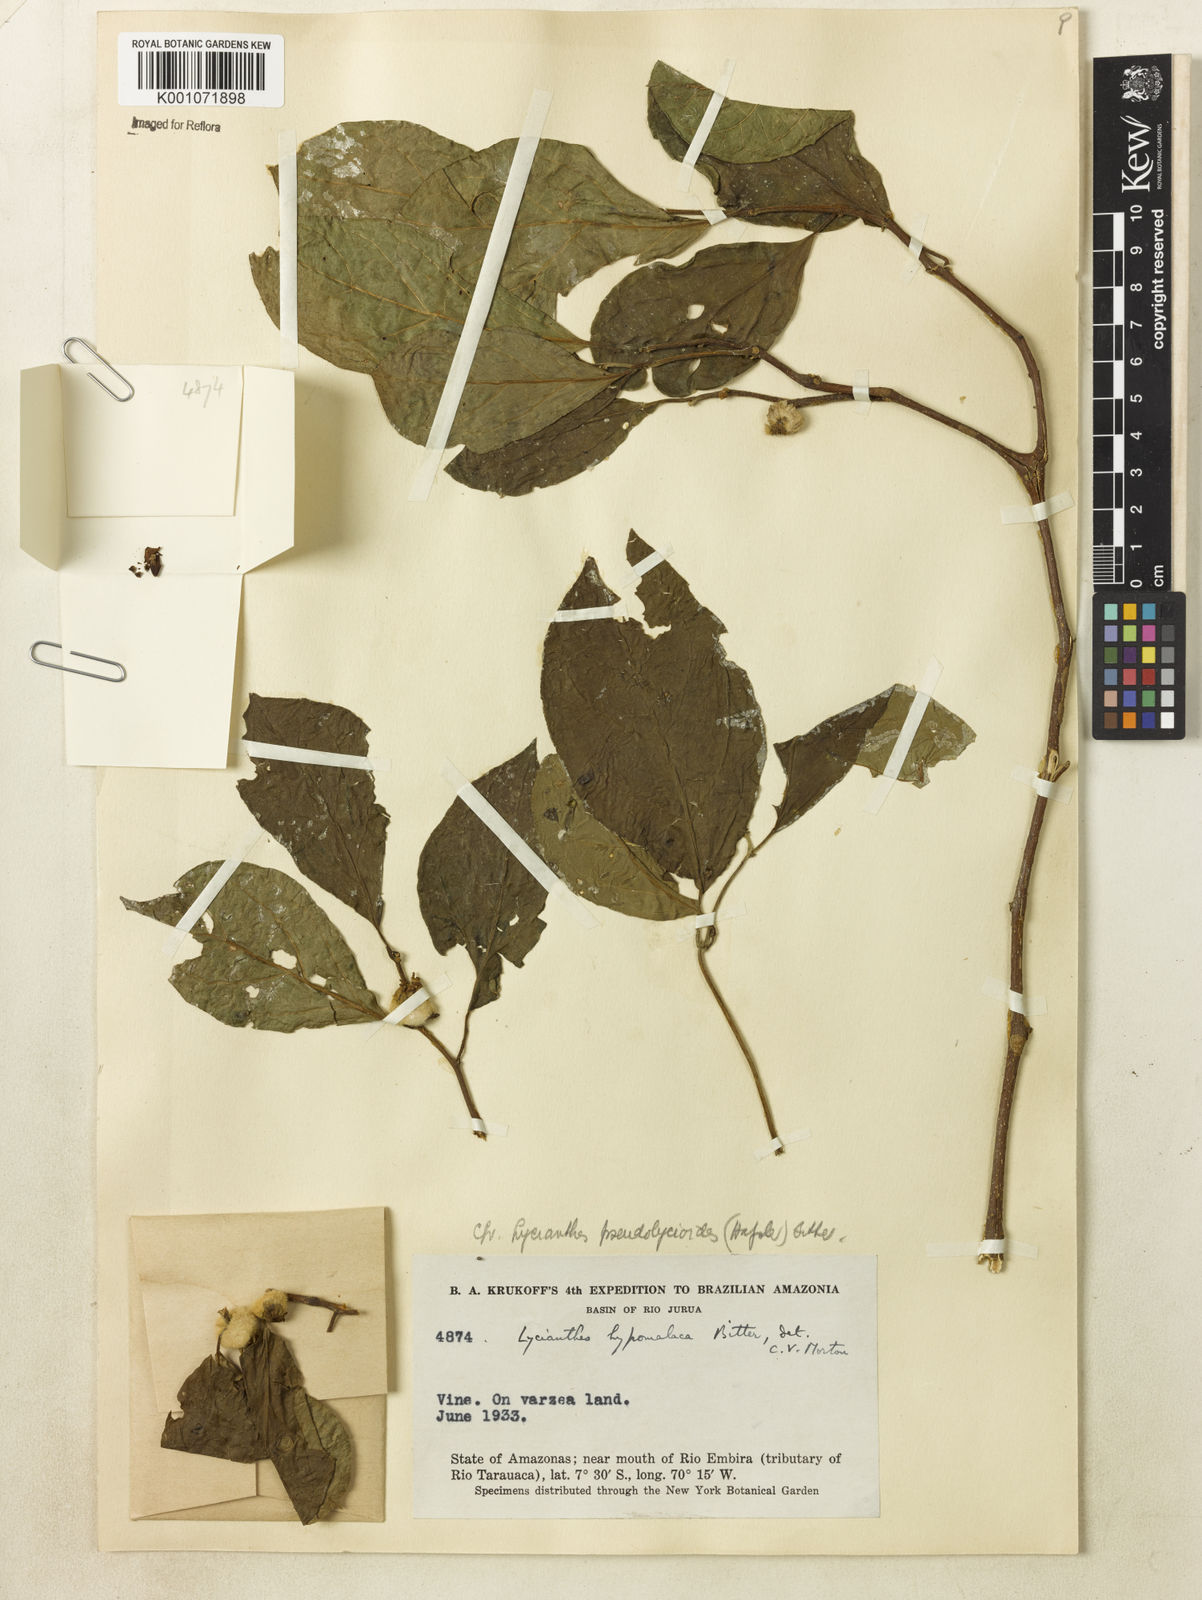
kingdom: Plantae
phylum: Tracheophyta
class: Magnoliopsida
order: Solanales
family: Solanaceae
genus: Lycianthes
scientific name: Lycianthes glandulosa
